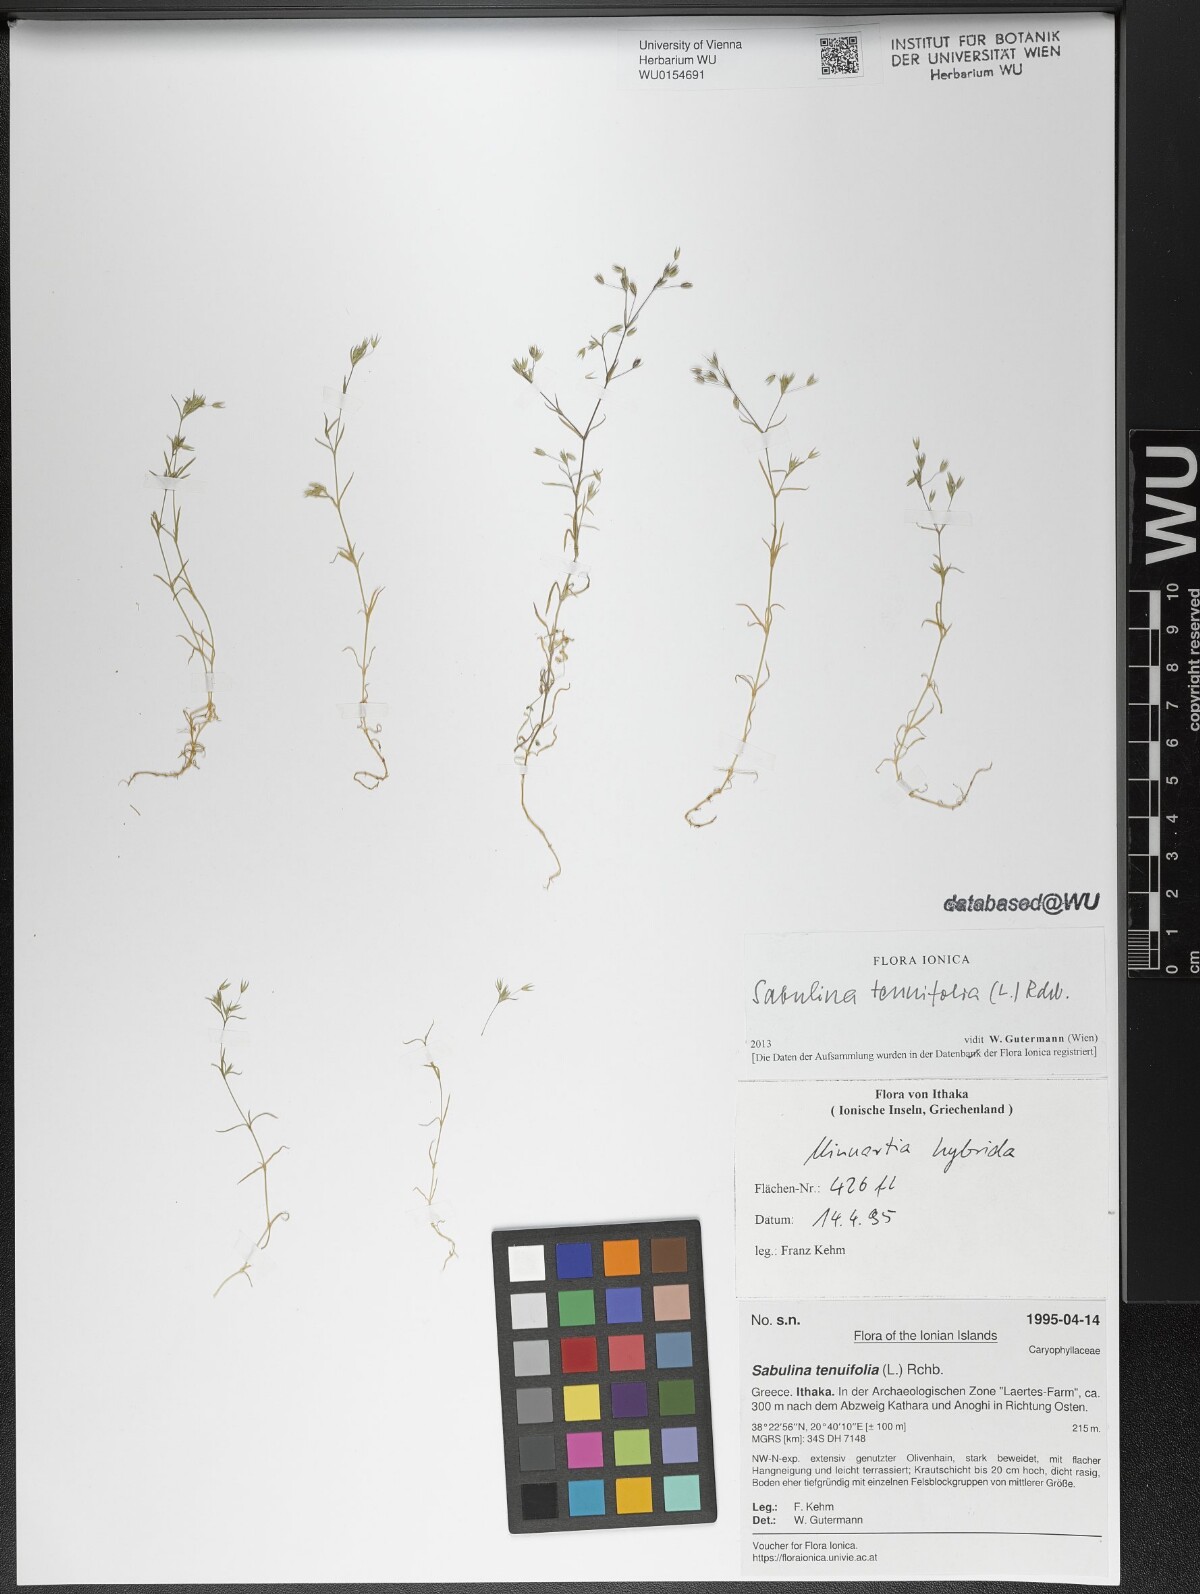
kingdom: Plantae
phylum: Tracheophyta
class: Magnoliopsida
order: Caryophyllales
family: Caryophyllaceae
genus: Sabulina
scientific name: Sabulina tenuifolia
